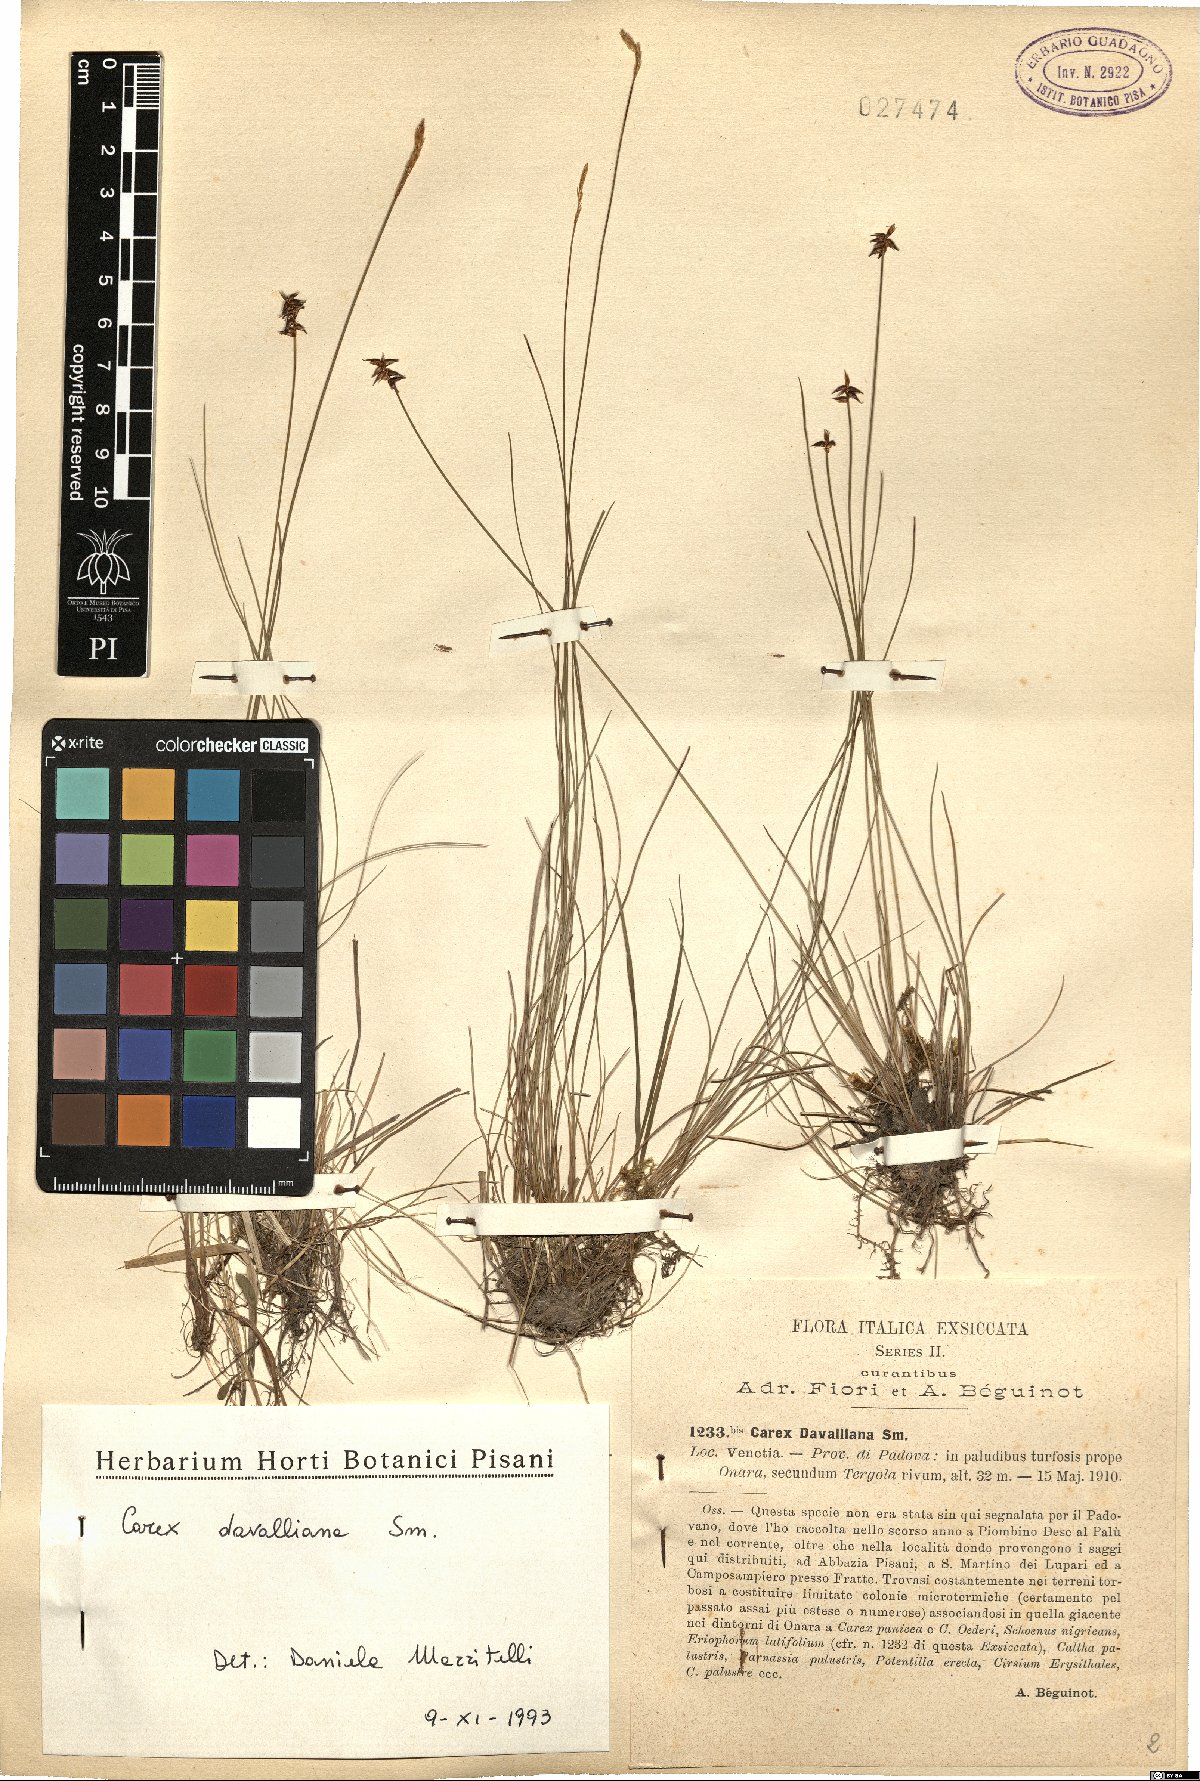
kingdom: Plantae
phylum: Tracheophyta
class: Liliopsida
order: Poales
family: Cyperaceae
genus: Carex
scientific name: Carex davalliana
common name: Davall's sedge
